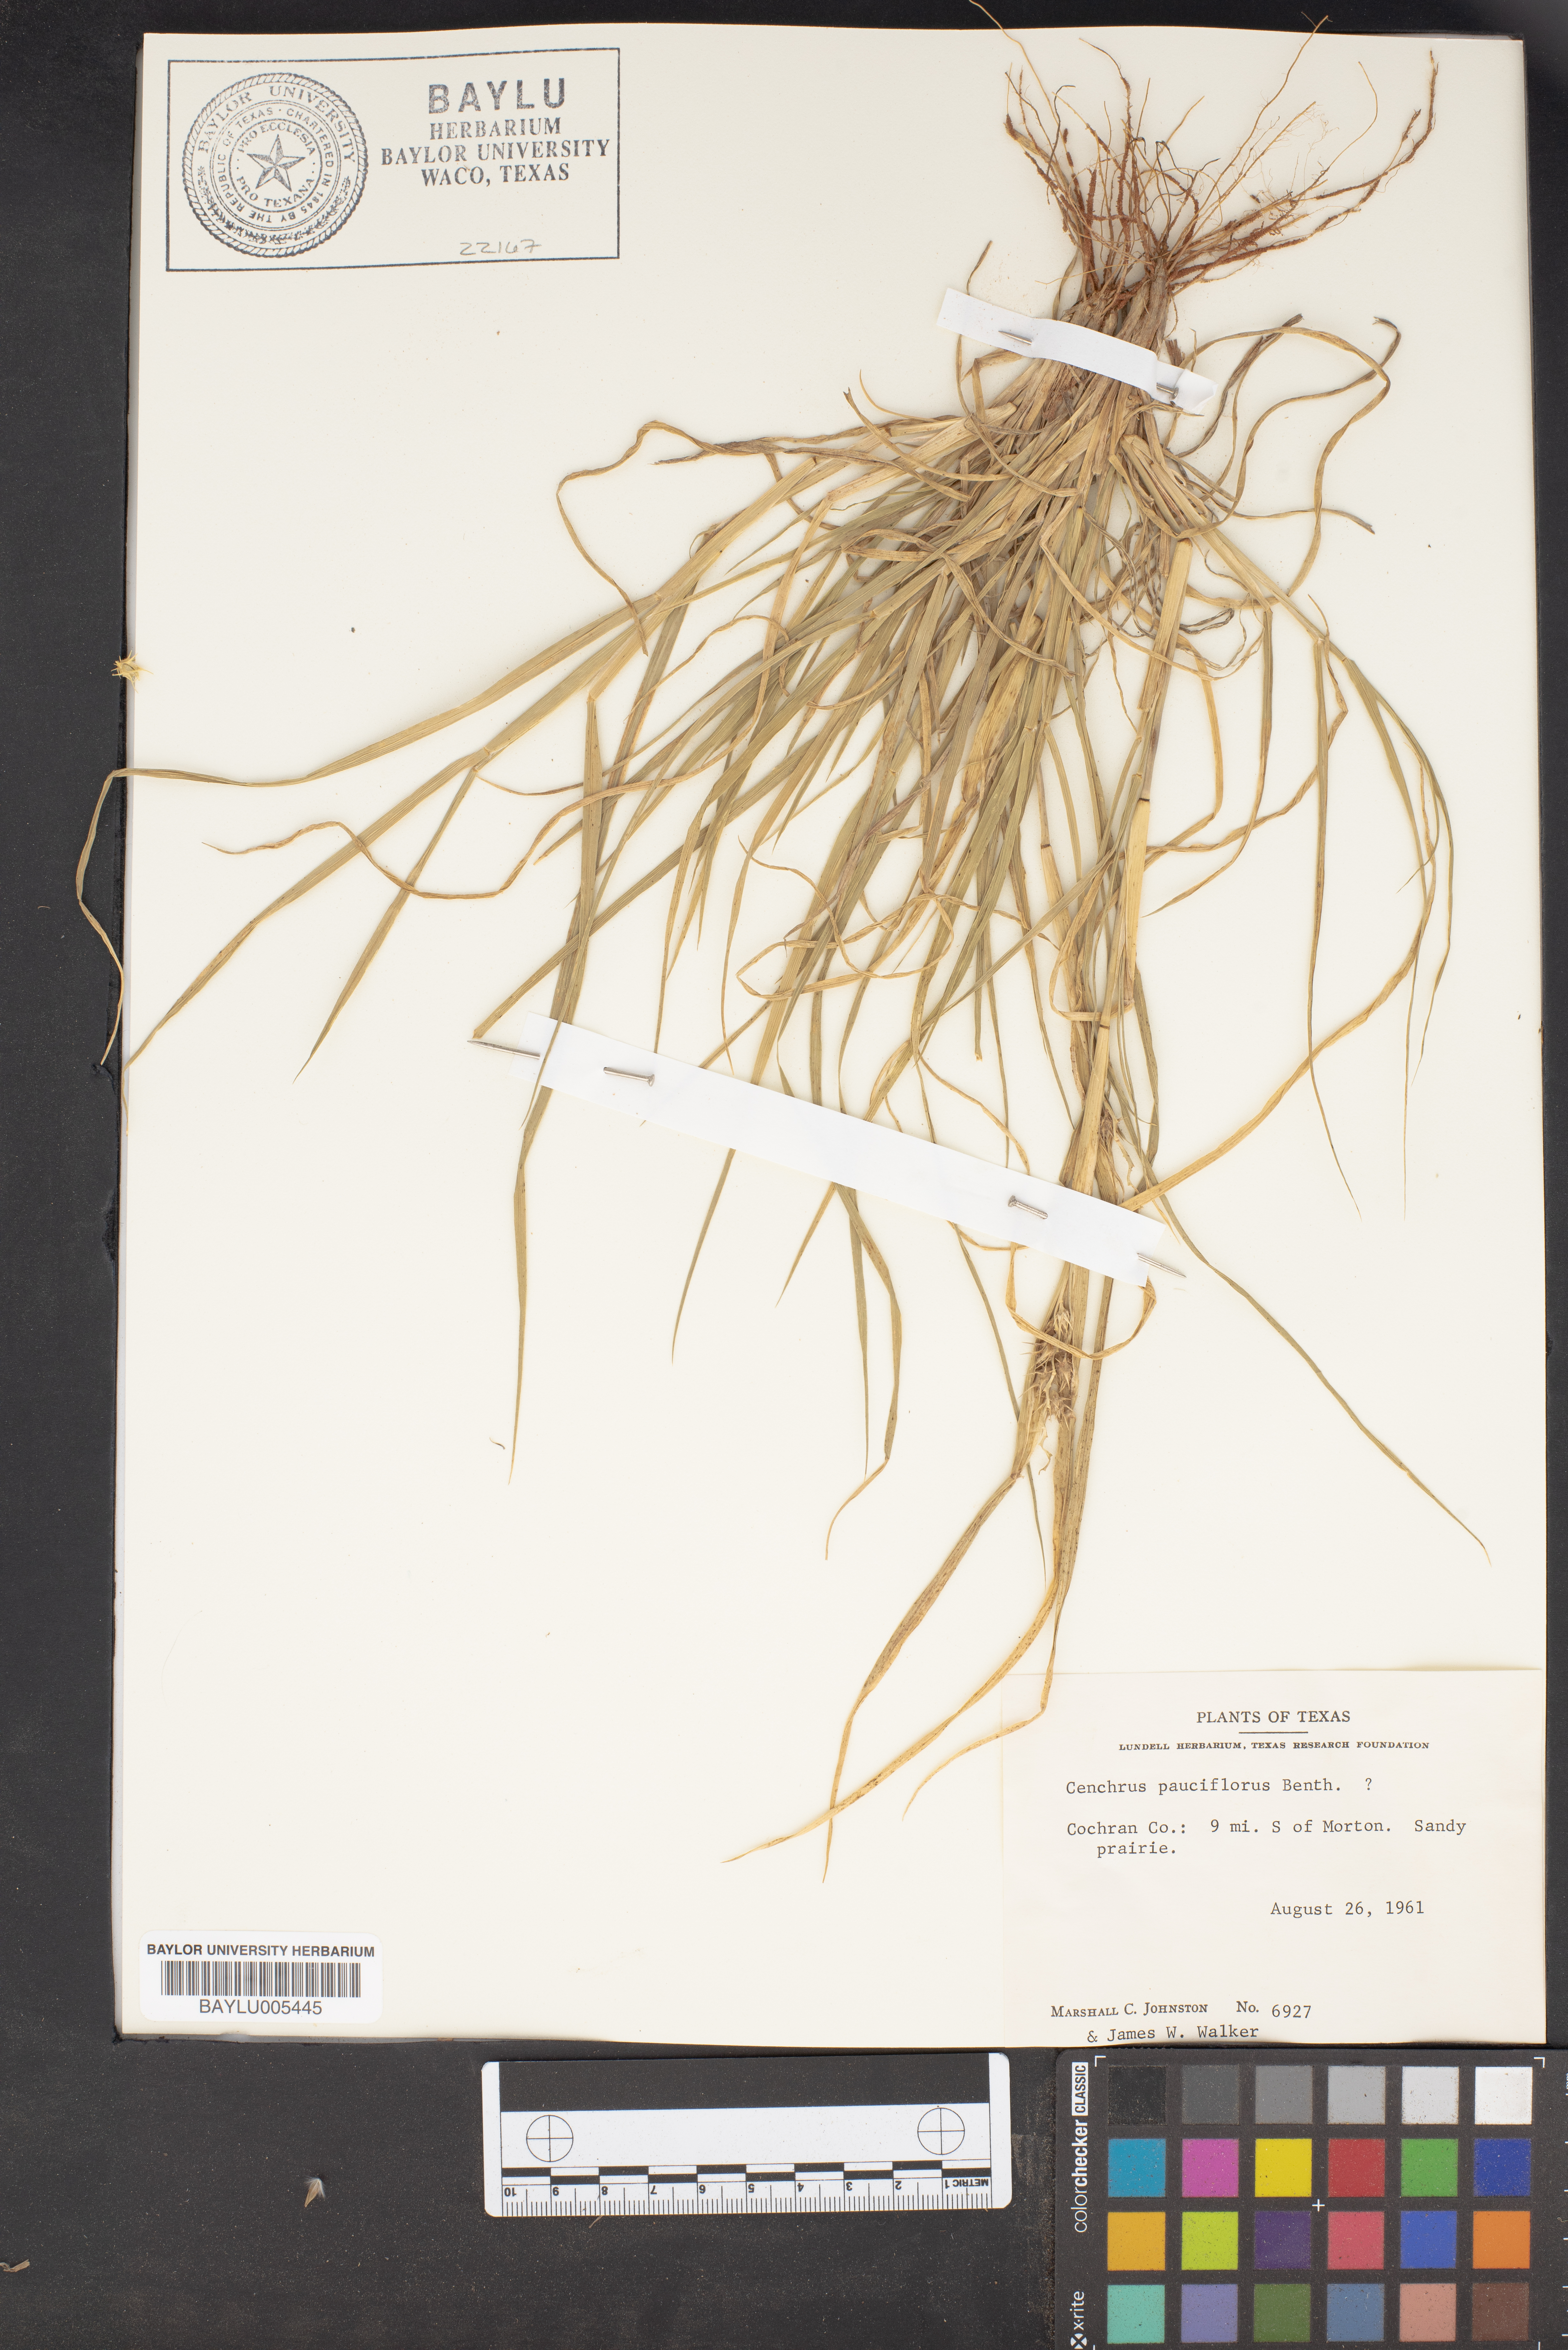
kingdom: Plantae
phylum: Tracheophyta
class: Liliopsida
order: Poales
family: Poaceae
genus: Cenchrus
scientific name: Cenchrus spinifex
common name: Coast sandbur
